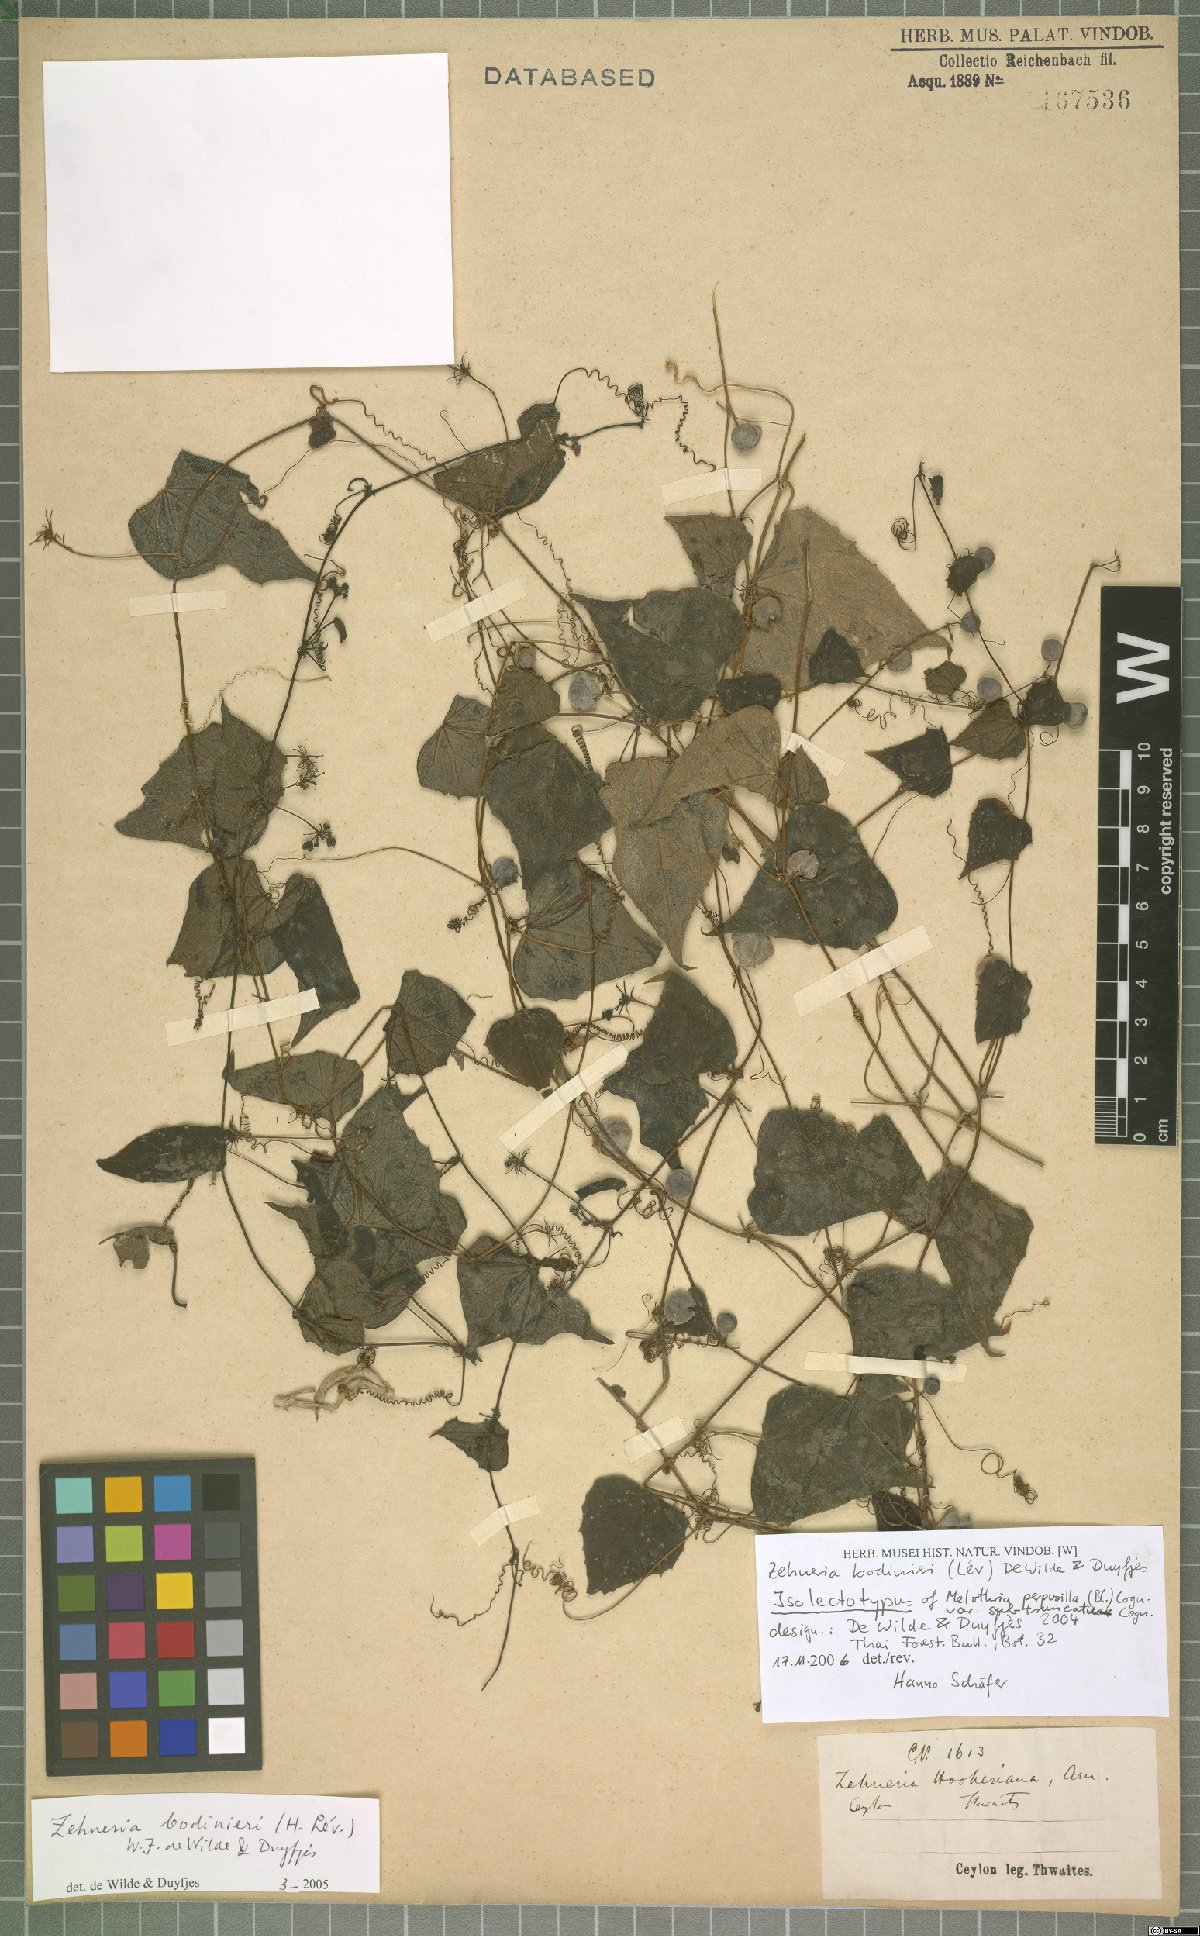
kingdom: Plantae
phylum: Tracheophyta
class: Magnoliopsida
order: Cucurbitales
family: Cucurbitaceae
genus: Zehneria
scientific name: Zehneria bodinieri
